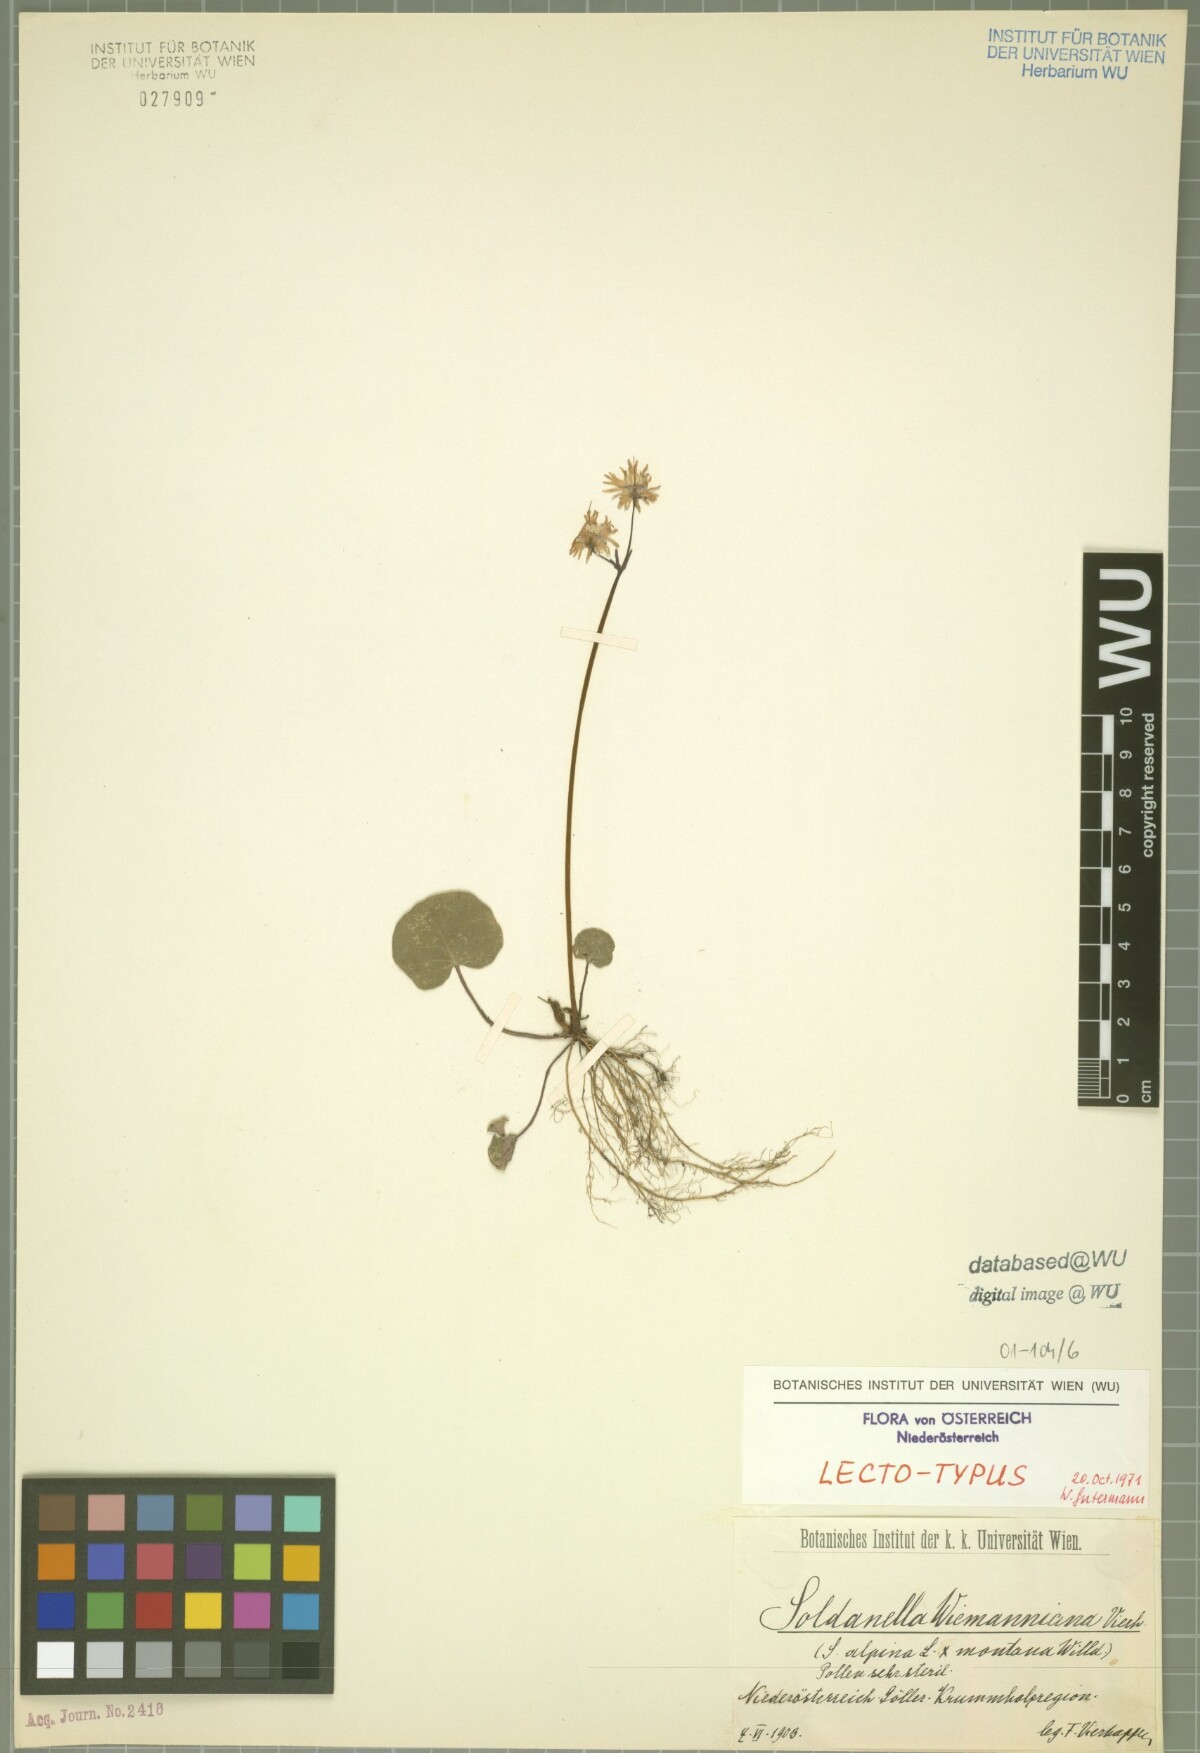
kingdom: Plantae
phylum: Tracheophyta
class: Magnoliopsida
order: Ericales
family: Primulaceae
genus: Soldanella
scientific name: Soldanella wiemanniana
